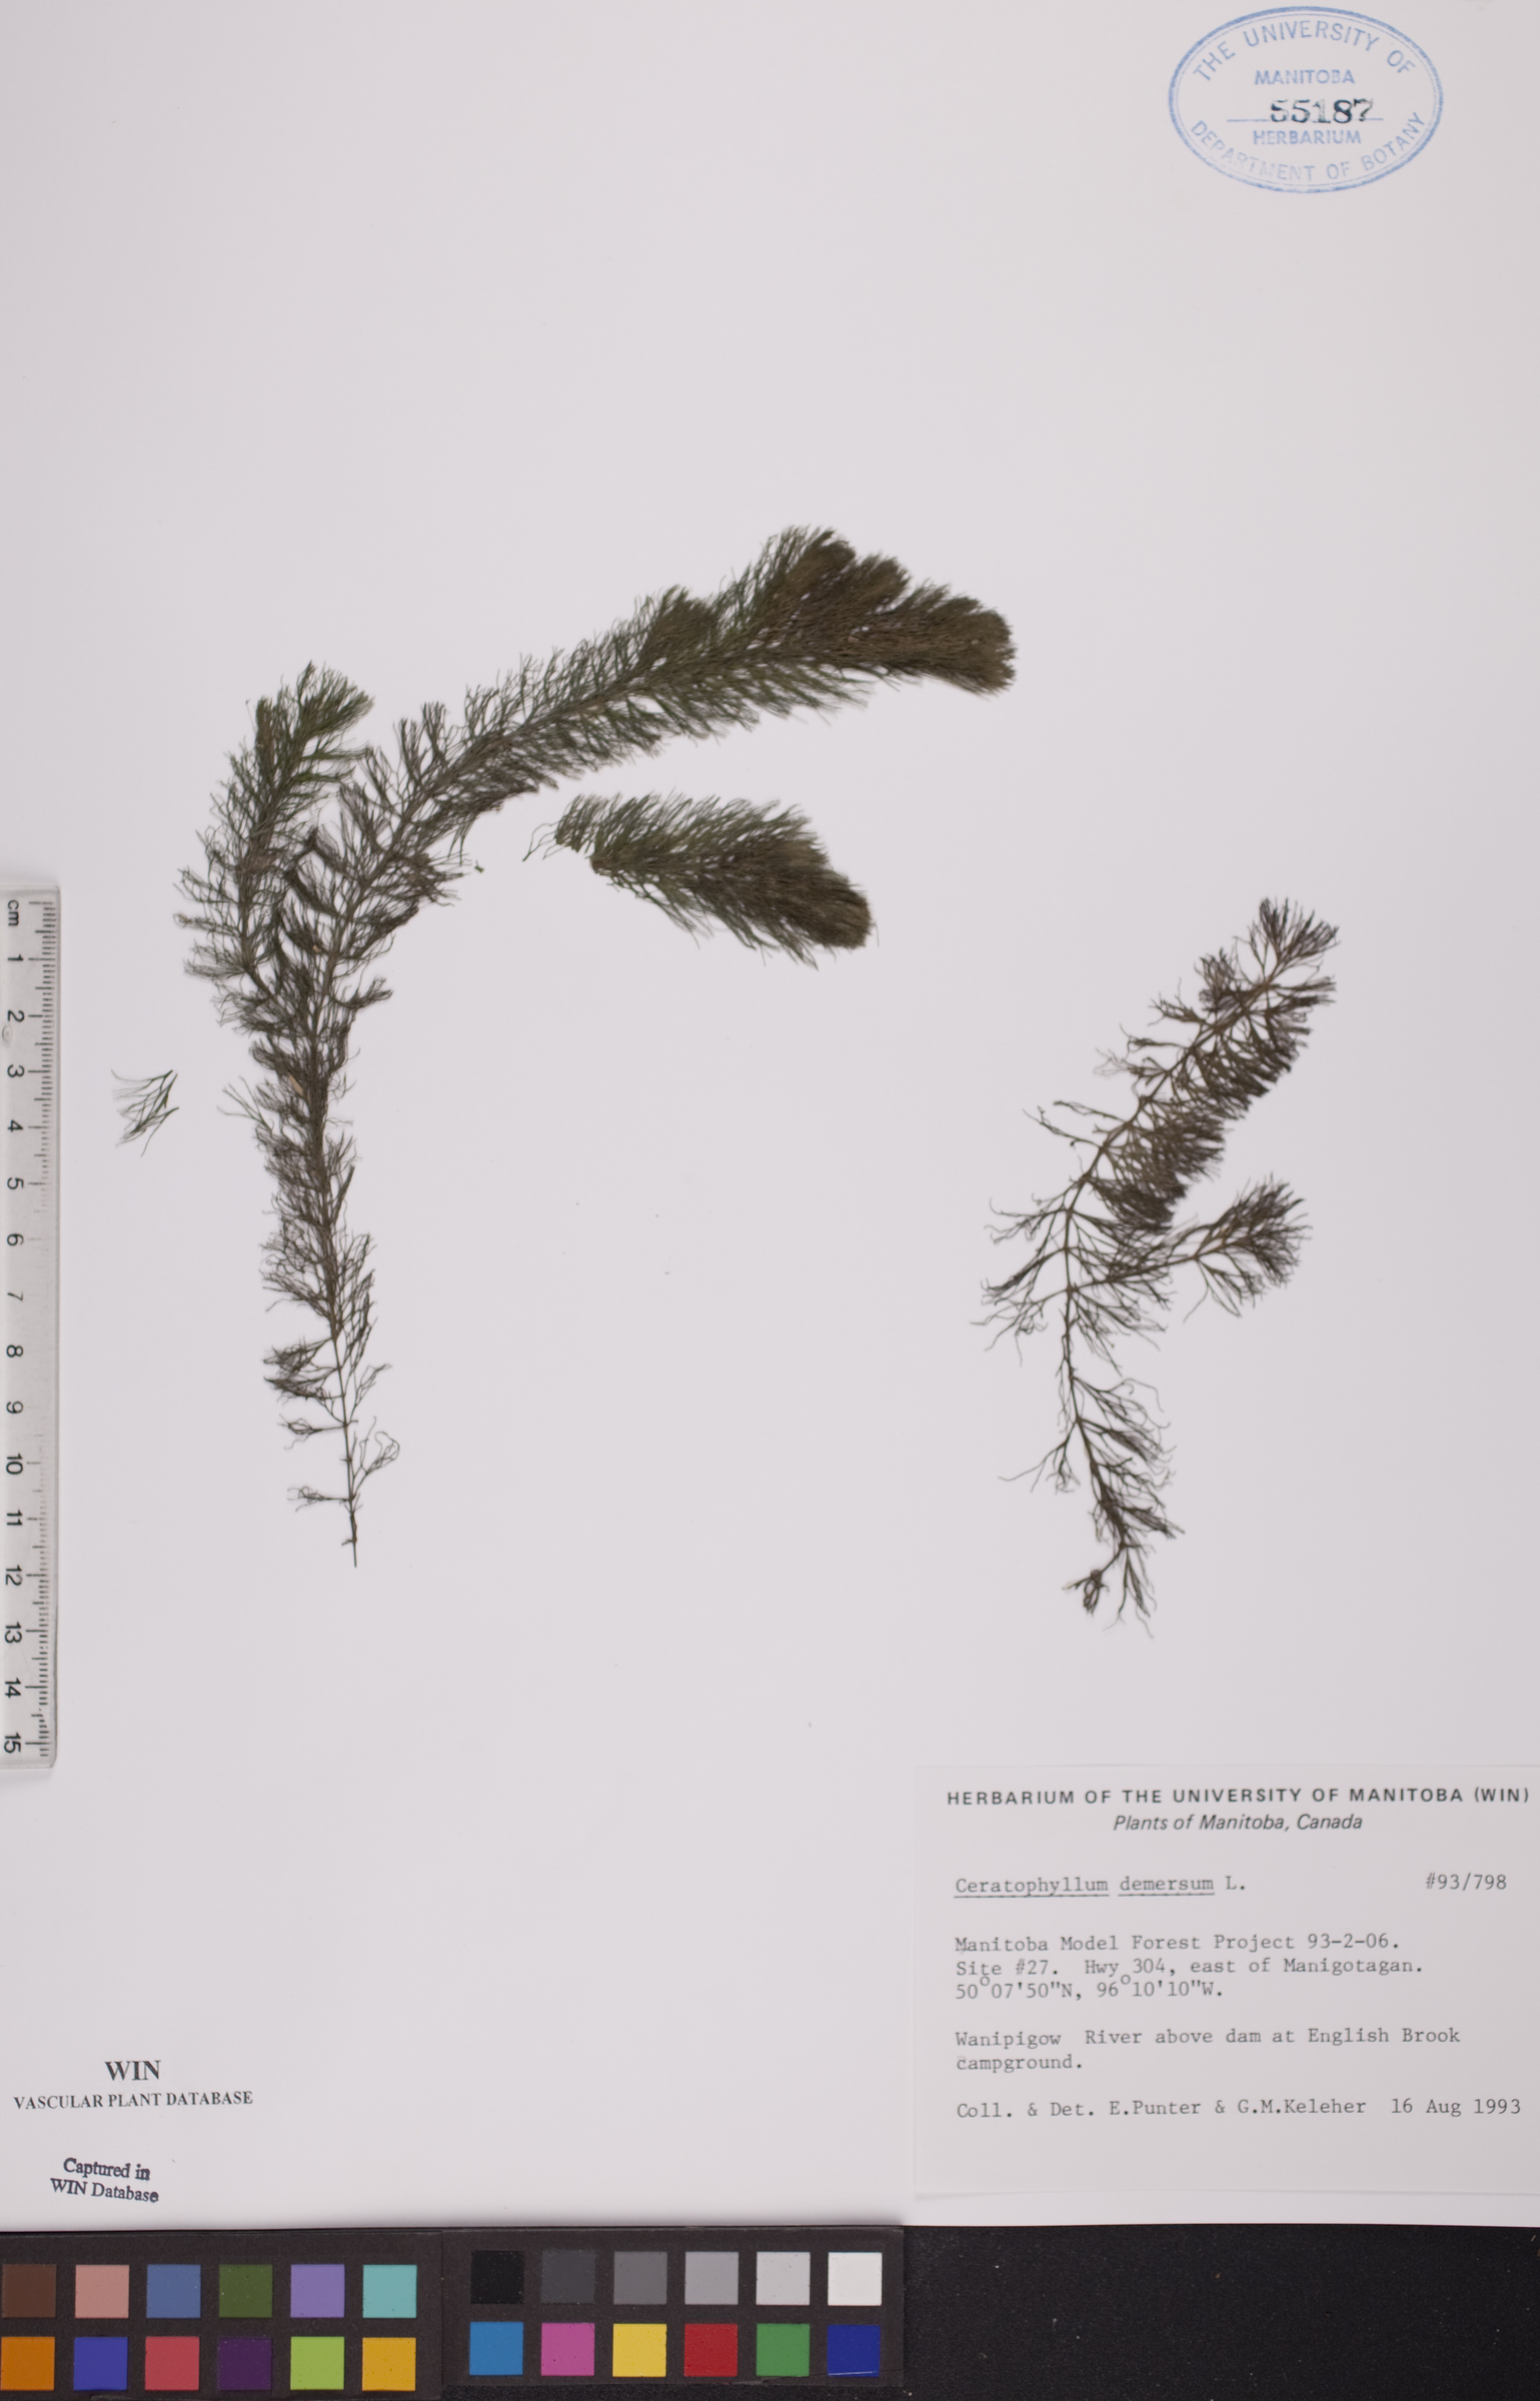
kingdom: Plantae
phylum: Tracheophyta
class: Magnoliopsida
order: Ceratophyllales
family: Ceratophyllaceae
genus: Ceratophyllum
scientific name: Ceratophyllum demersum
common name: Rigid hornwort
